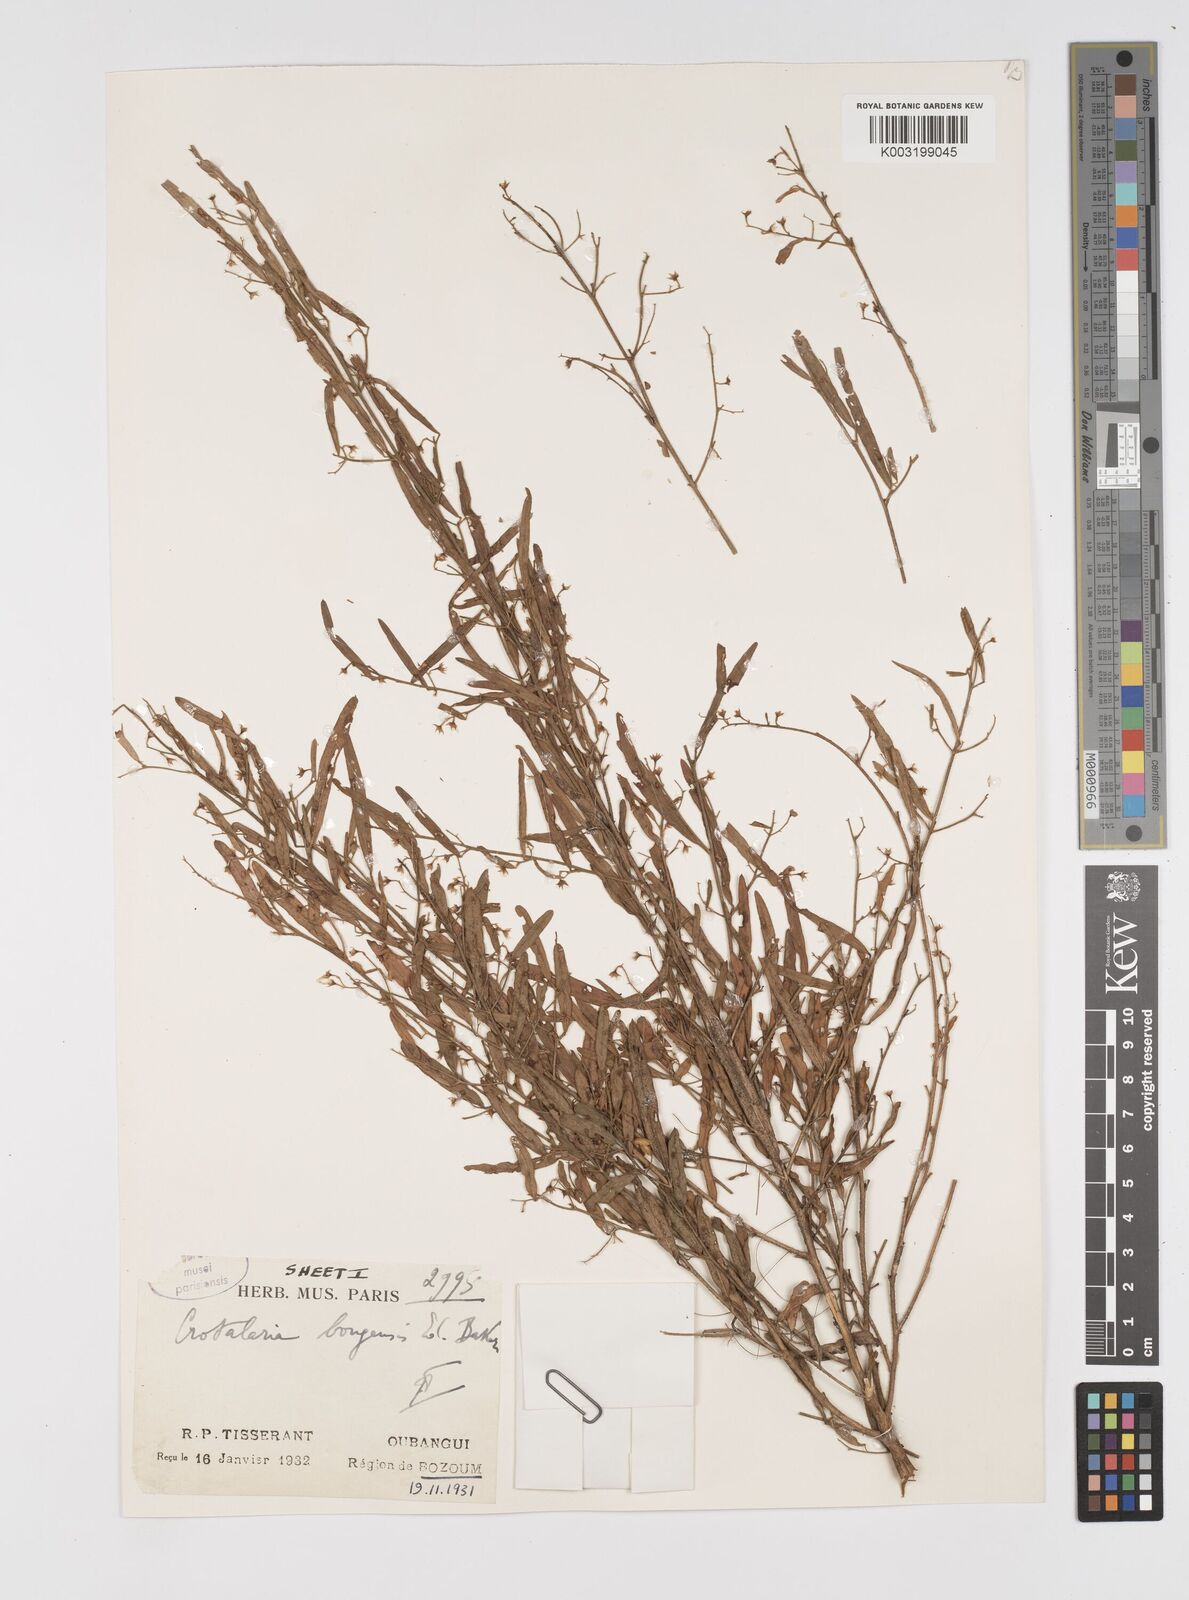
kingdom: Plantae
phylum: Tracheophyta
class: Magnoliopsida
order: Fabales
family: Fabaceae
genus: Crotalaria
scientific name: Crotalaria bongensis
